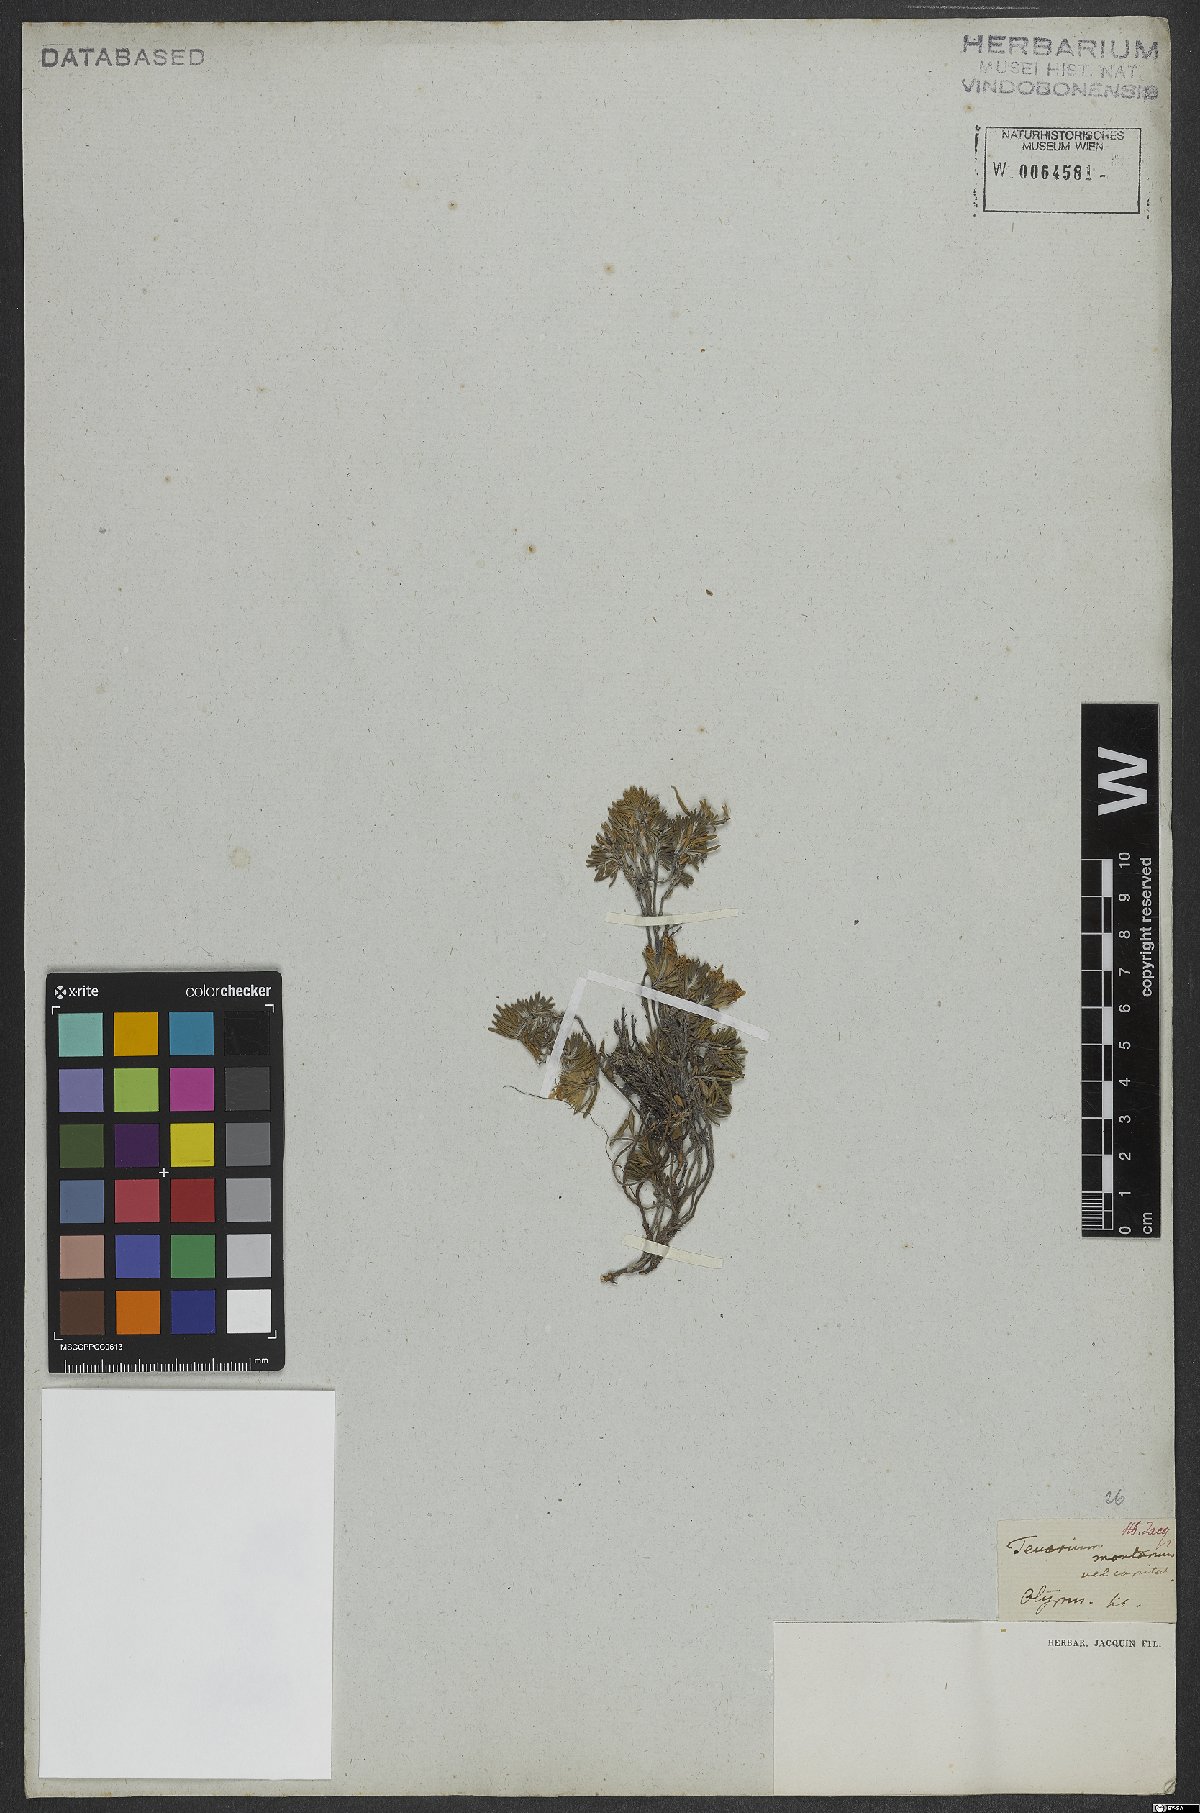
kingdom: Plantae
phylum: Tracheophyta
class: Magnoliopsida
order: Lamiales
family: Lamiaceae
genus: Teucrium
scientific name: Teucrium montanum
